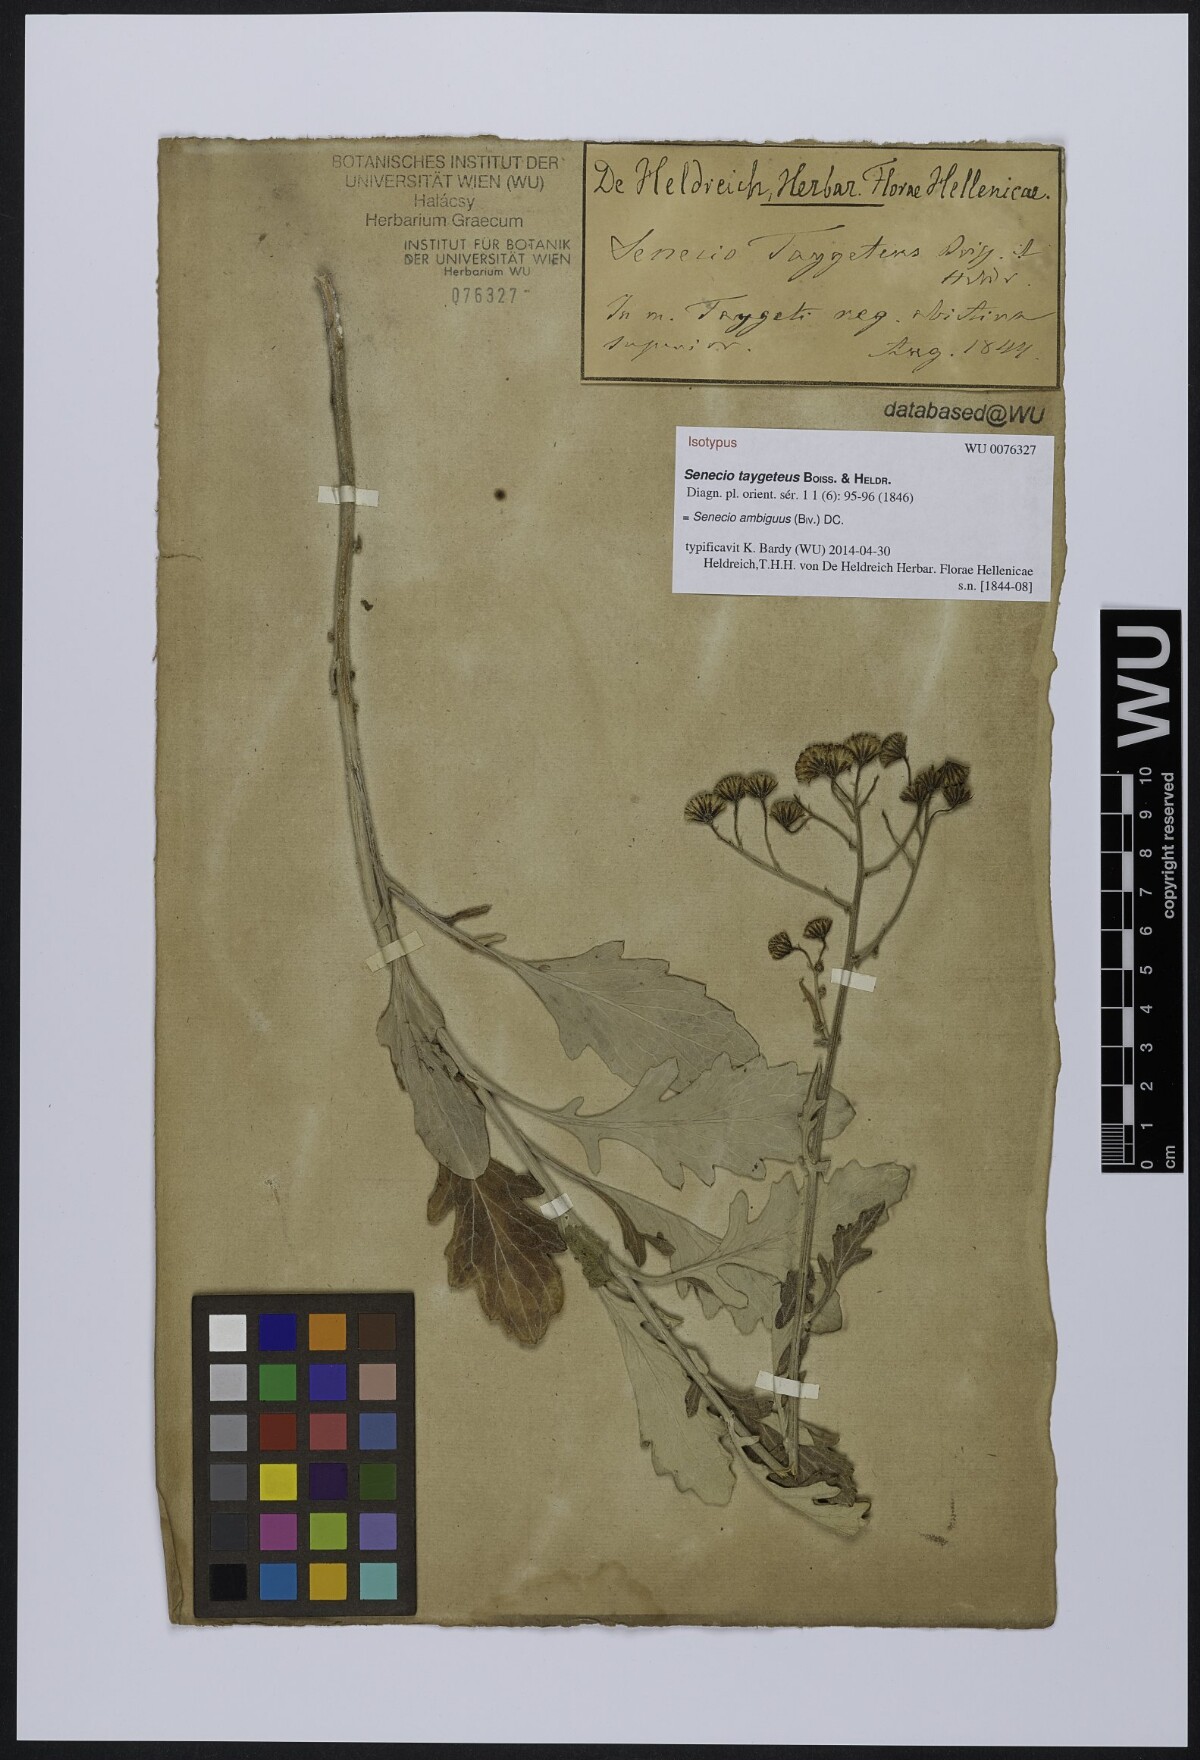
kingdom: Plantae
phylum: Tracheophyta
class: Magnoliopsida
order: Asterales
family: Asteraceae
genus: Jacobaea
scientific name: Jacobaea ambigua
